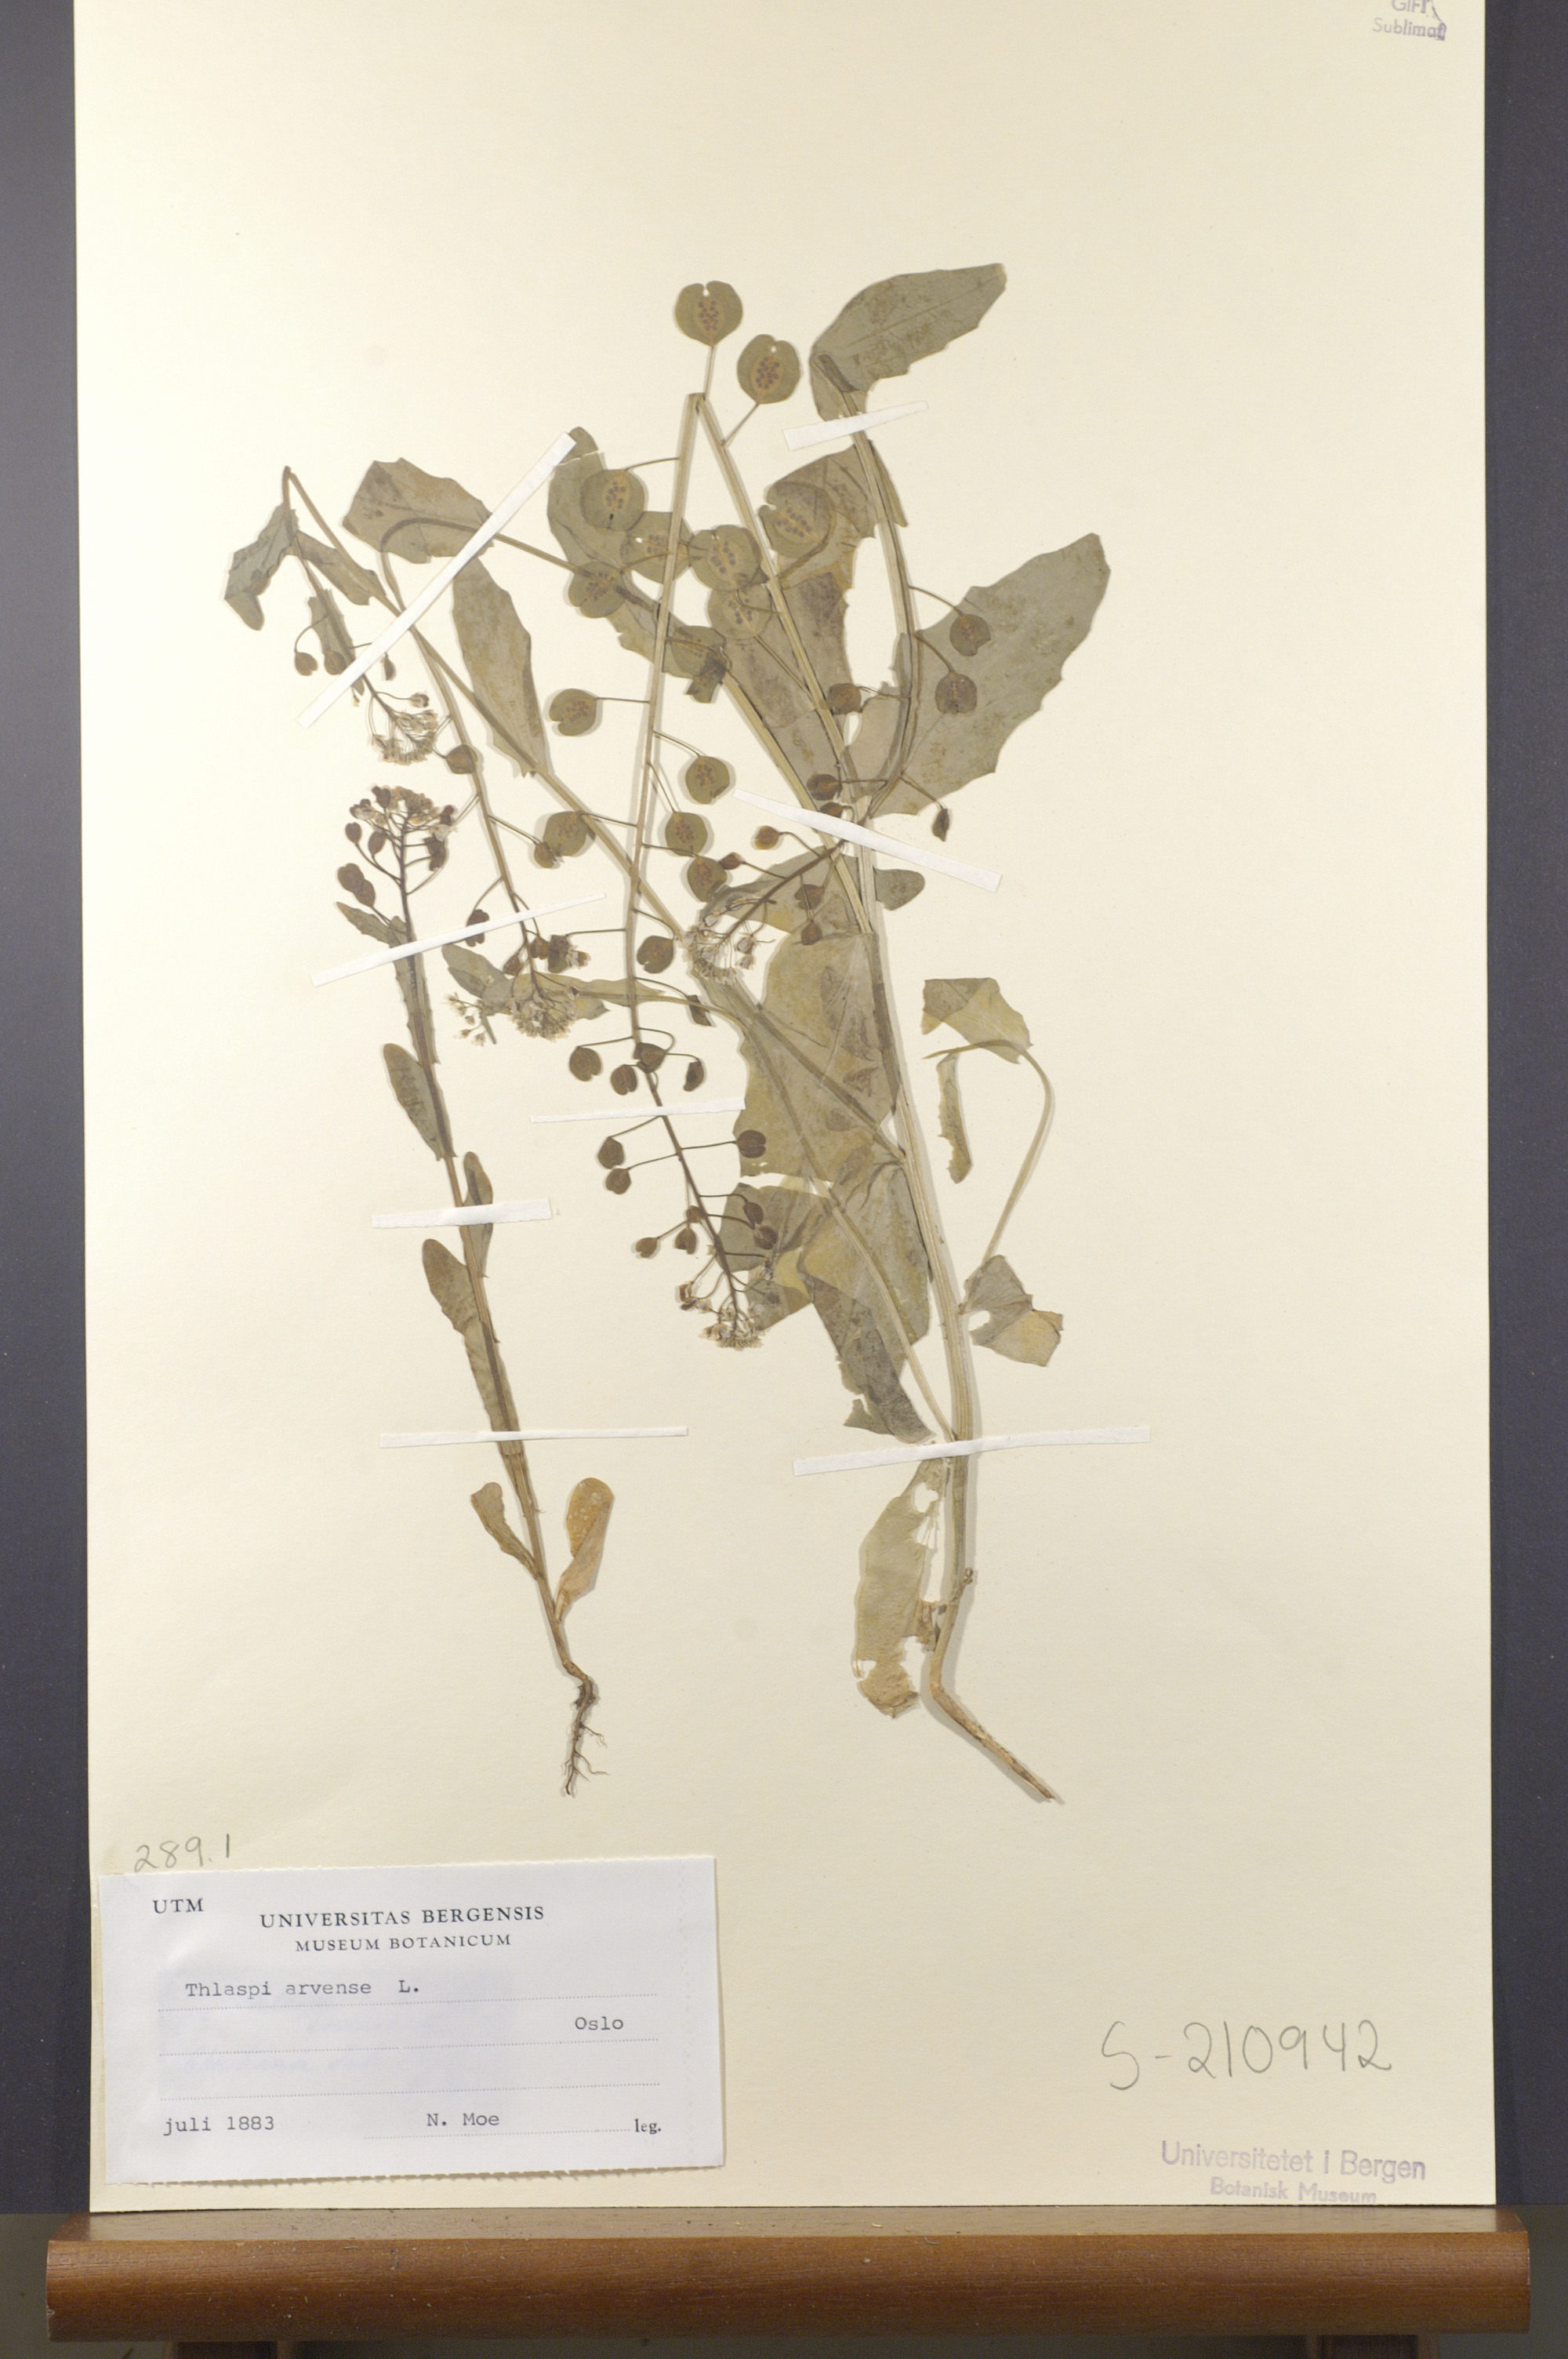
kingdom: Plantae
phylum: Tracheophyta
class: Magnoliopsida
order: Brassicales
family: Brassicaceae
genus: Thlaspi
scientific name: Thlaspi arvense
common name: Field pennycress
